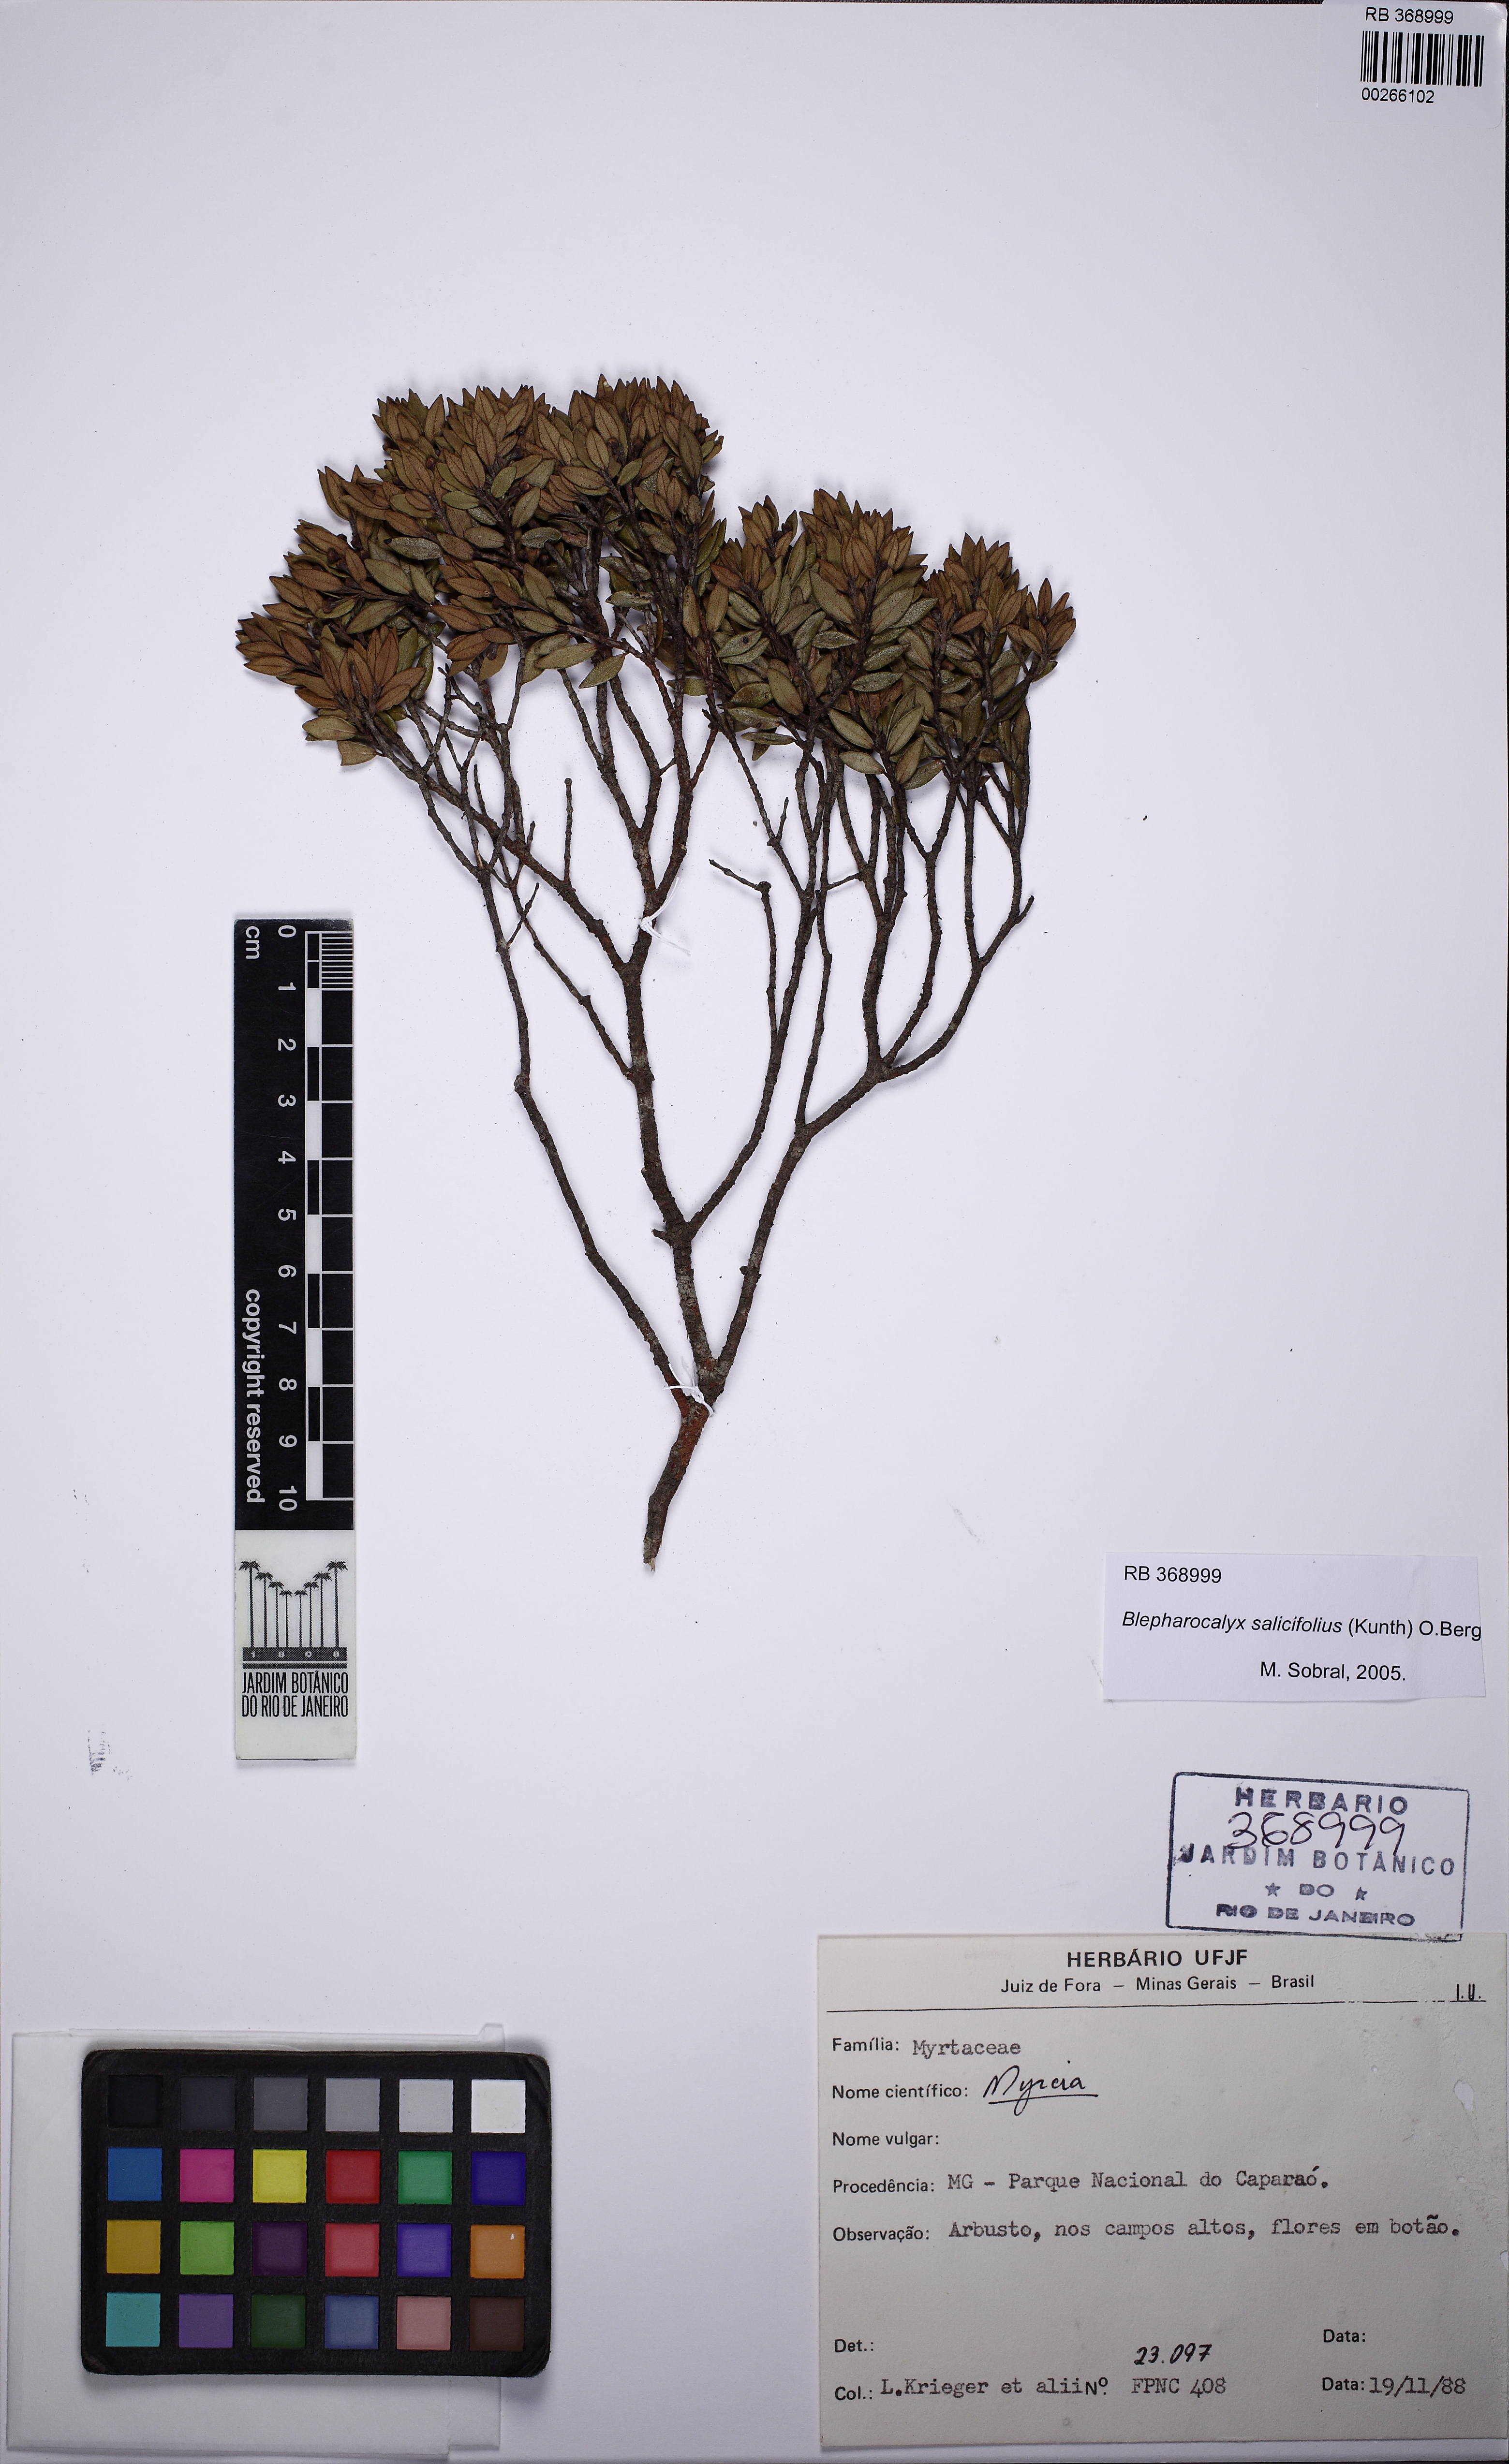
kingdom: Plantae
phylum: Tracheophyta
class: Magnoliopsida
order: Myrtales
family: Myrtaceae
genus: Blepharocalyx
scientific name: Blepharocalyx salicifolius
